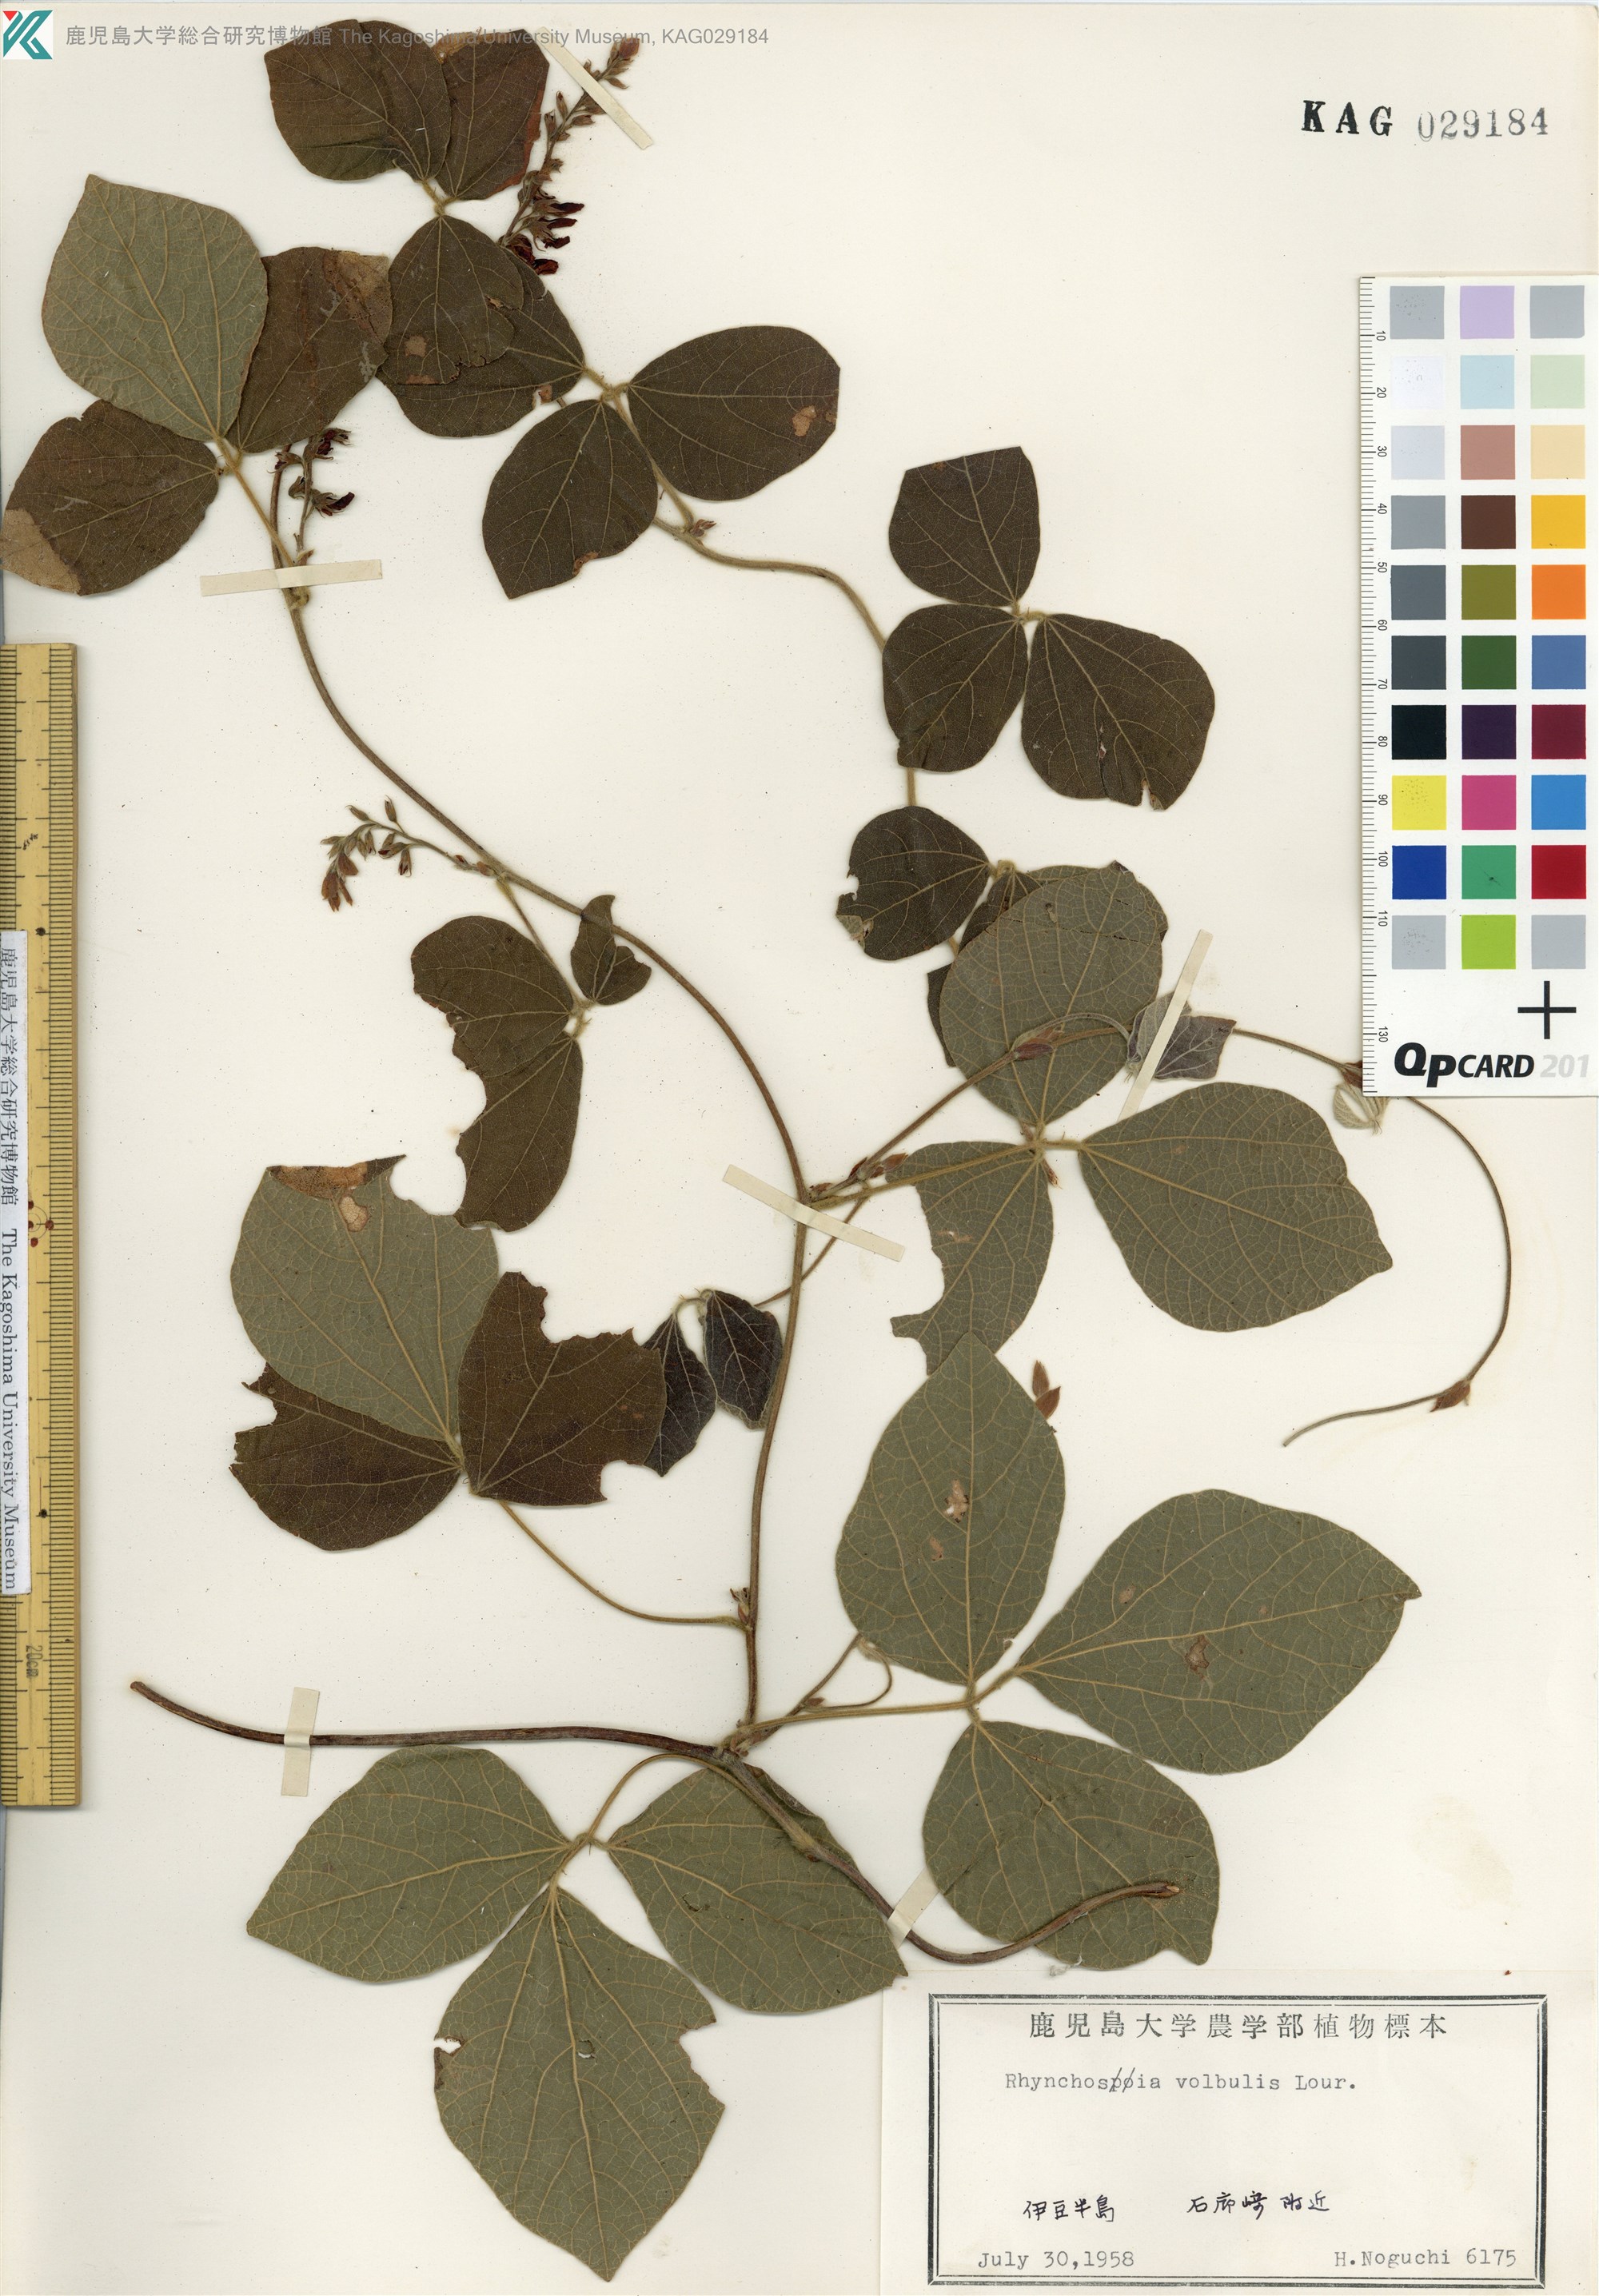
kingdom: Plantae
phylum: Tracheophyta
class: Magnoliopsida
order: Fabales
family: Fabaceae
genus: Rhynchosia
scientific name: Rhynchosia volubilis
